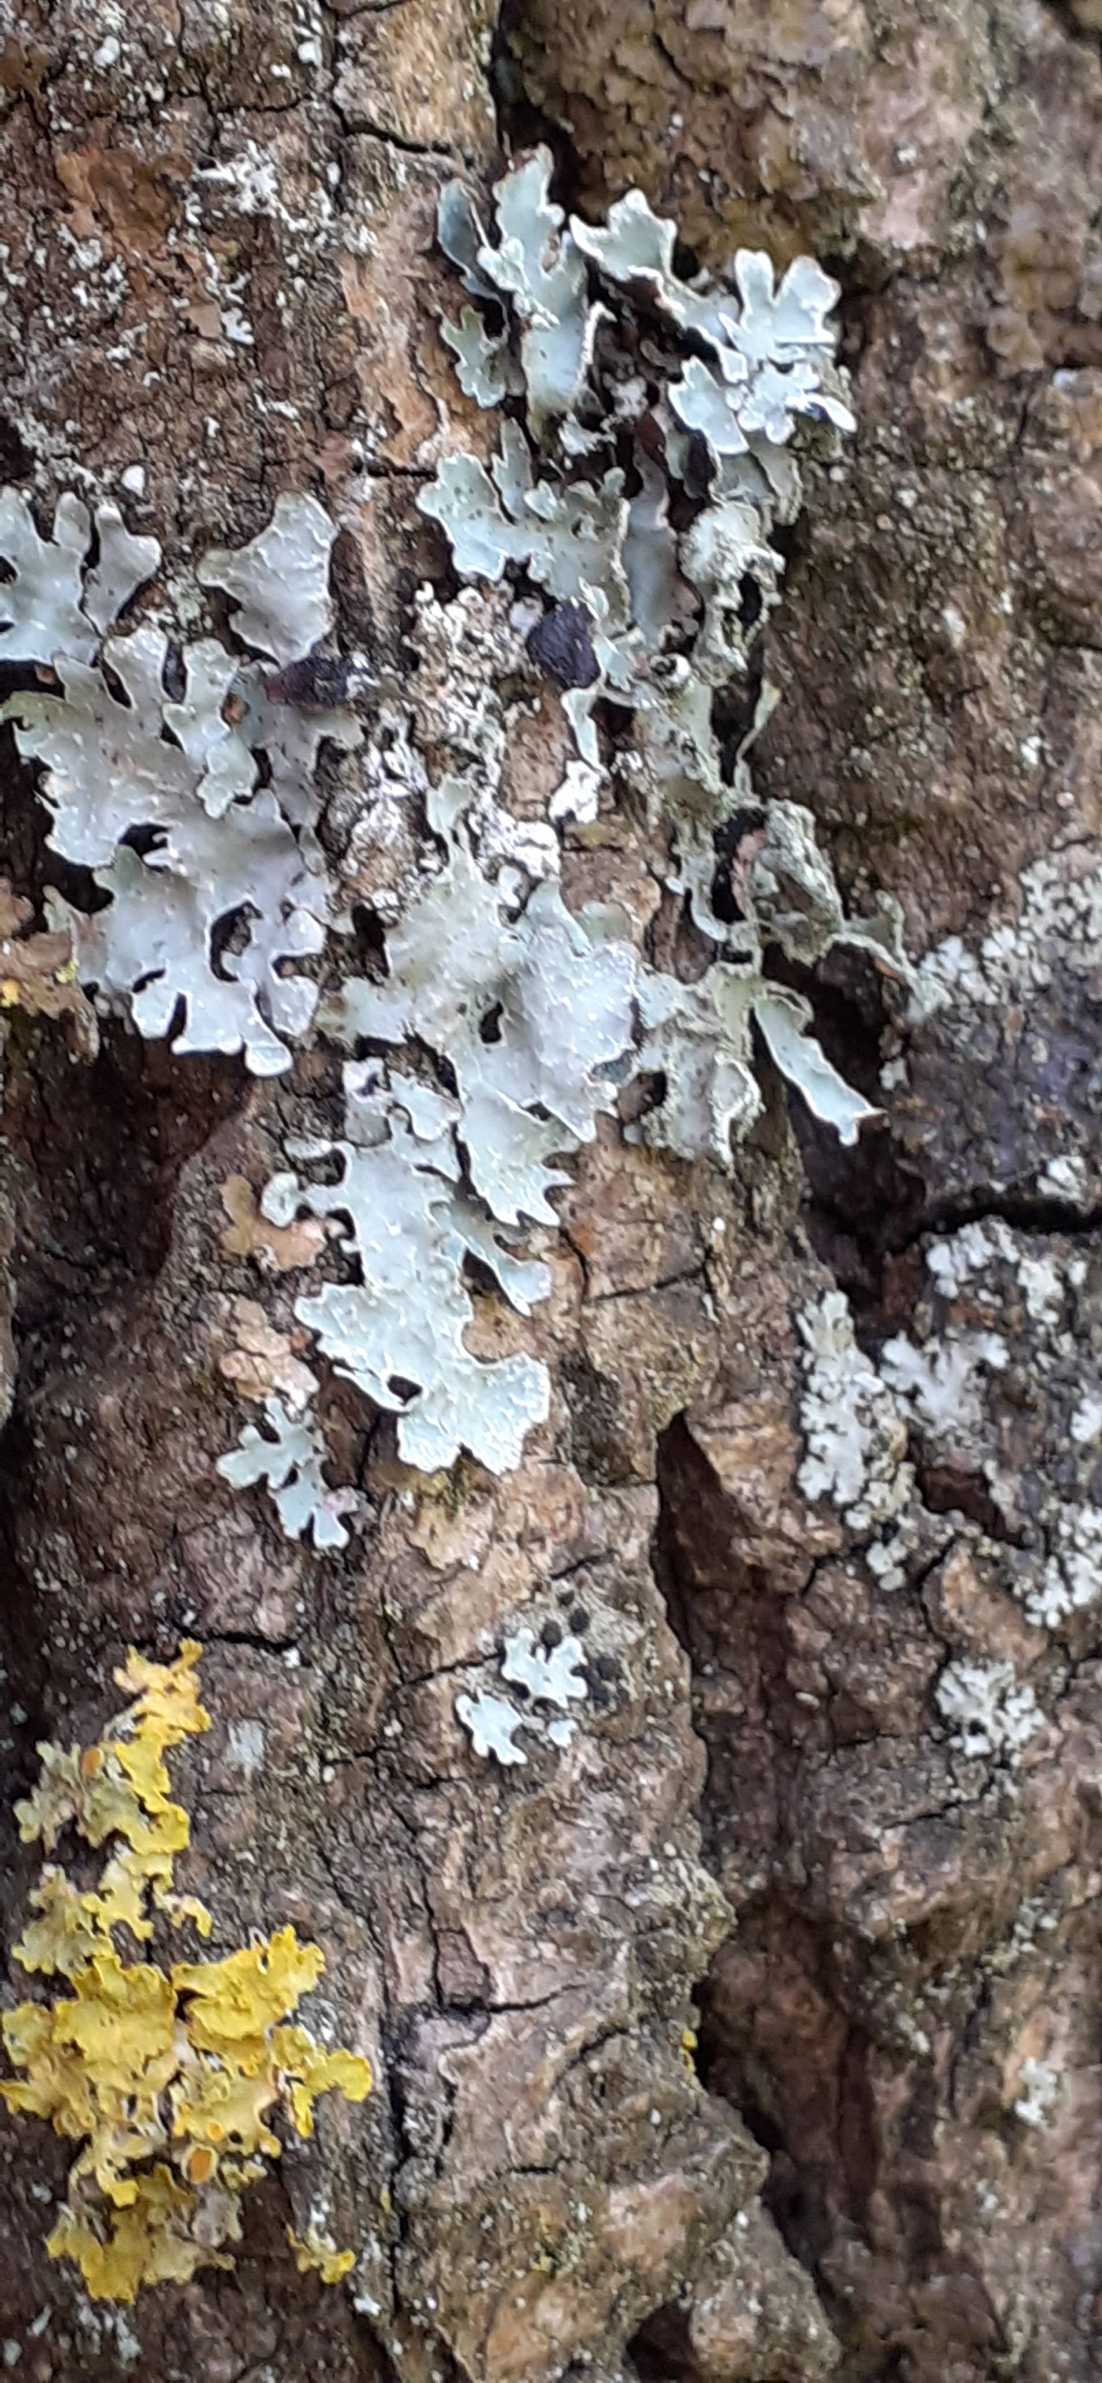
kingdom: Fungi
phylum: Ascomycota
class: Lecanoromycetes
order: Lecanorales
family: Parmeliaceae
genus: Parmelia
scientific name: Parmelia sulcata
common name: Rynket skållav
